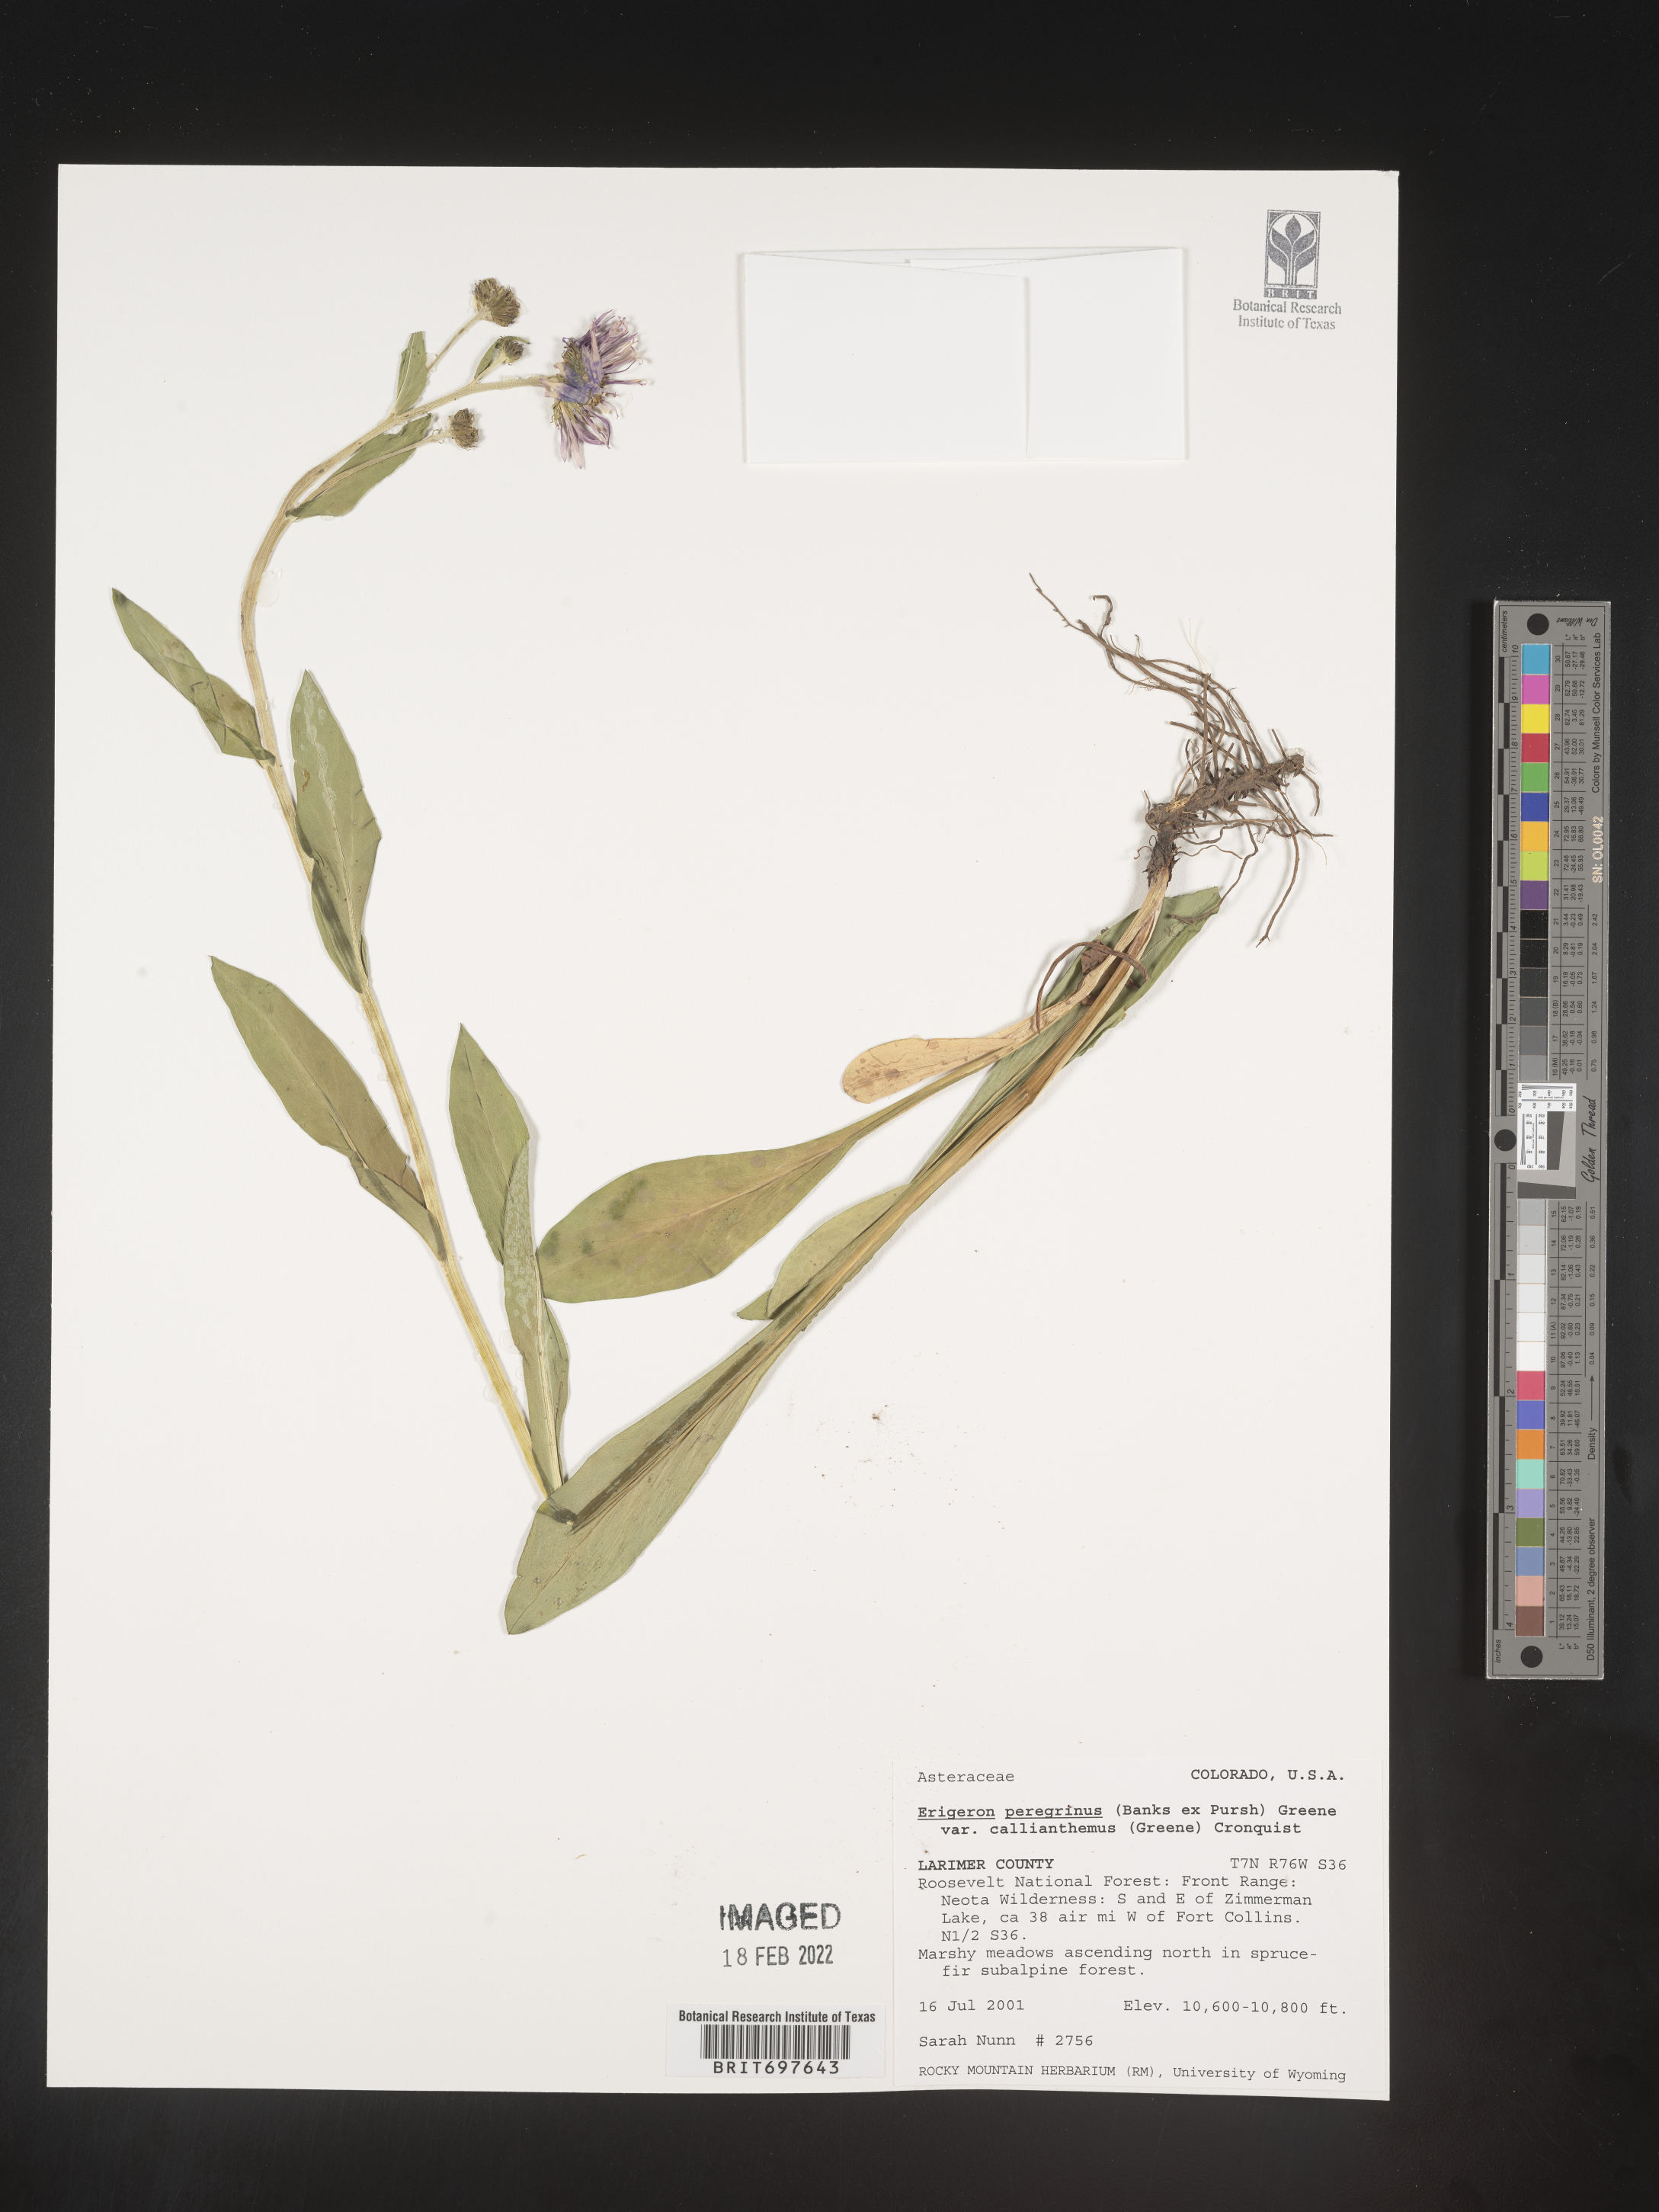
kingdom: Plantae
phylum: Tracheophyta
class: Magnoliopsida
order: Asterales
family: Asteraceae
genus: Erigeron
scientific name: Erigeron peregrinus
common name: Peregrine fleabane
